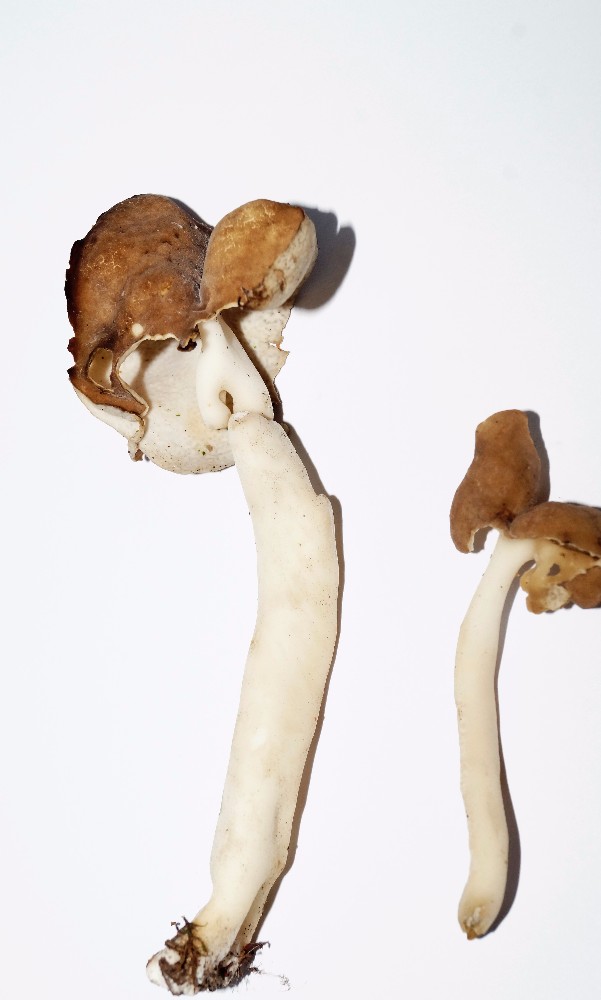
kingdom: Fungi
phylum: Ascomycota
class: Pezizomycetes
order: Pezizales
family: Helvellaceae
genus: Helvella
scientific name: Helvella elastica
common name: elastik-foldhat
